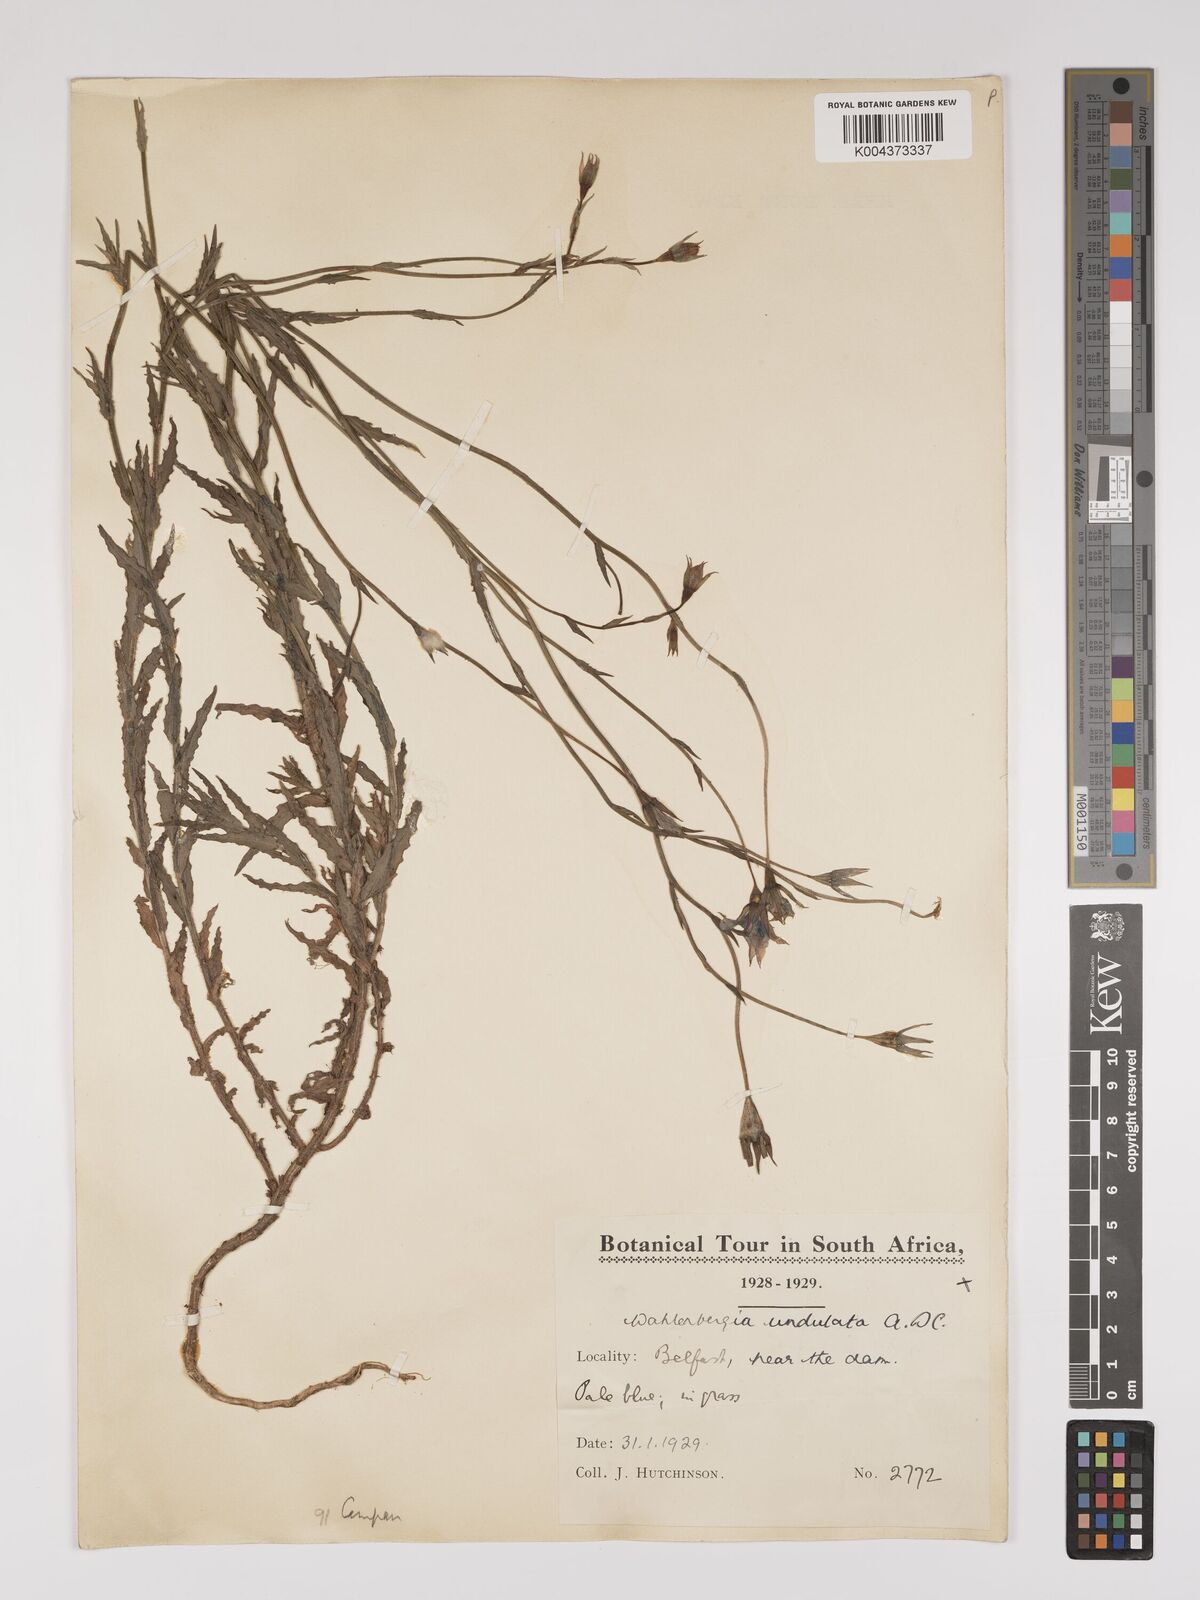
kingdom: Plantae
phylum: Tracheophyta
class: Magnoliopsida
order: Asterales
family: Campanulaceae
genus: Wahlenbergia
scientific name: Wahlenbergia undulata
